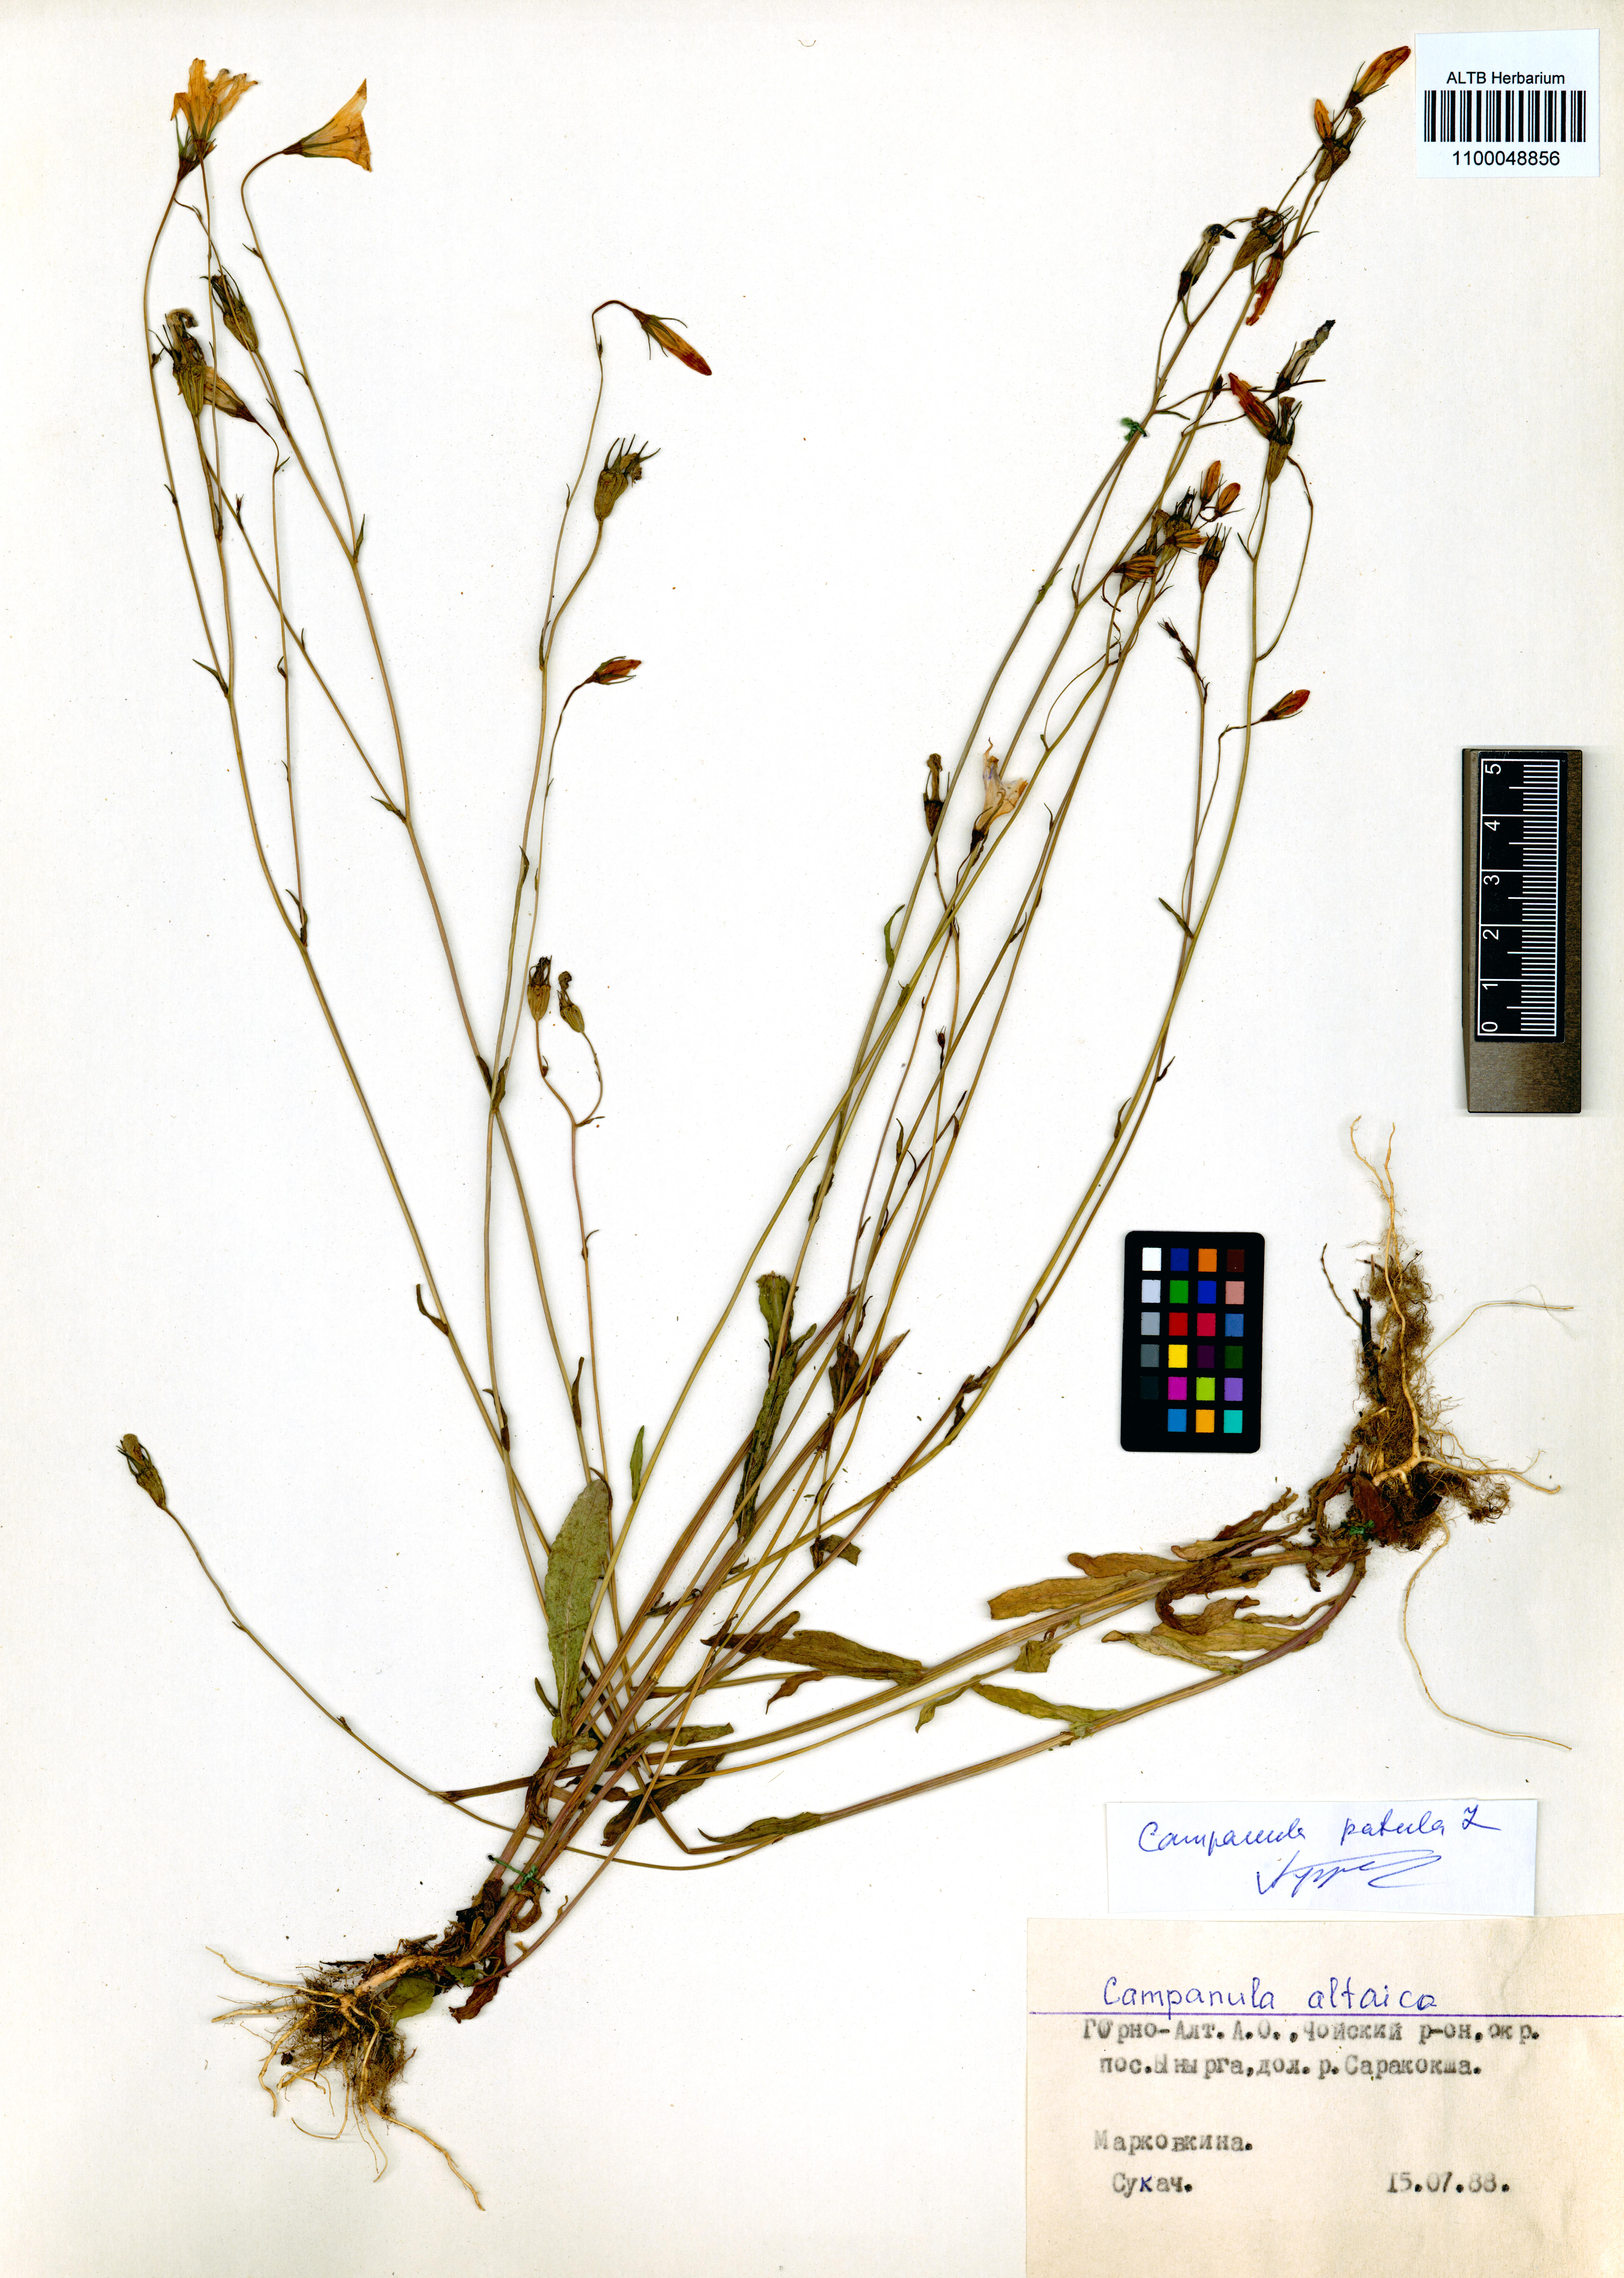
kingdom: Plantae
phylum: Tracheophyta
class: Magnoliopsida
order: Asterales
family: Campanulaceae
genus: Campanula
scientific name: Campanula patula
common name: Spreading bellflower
